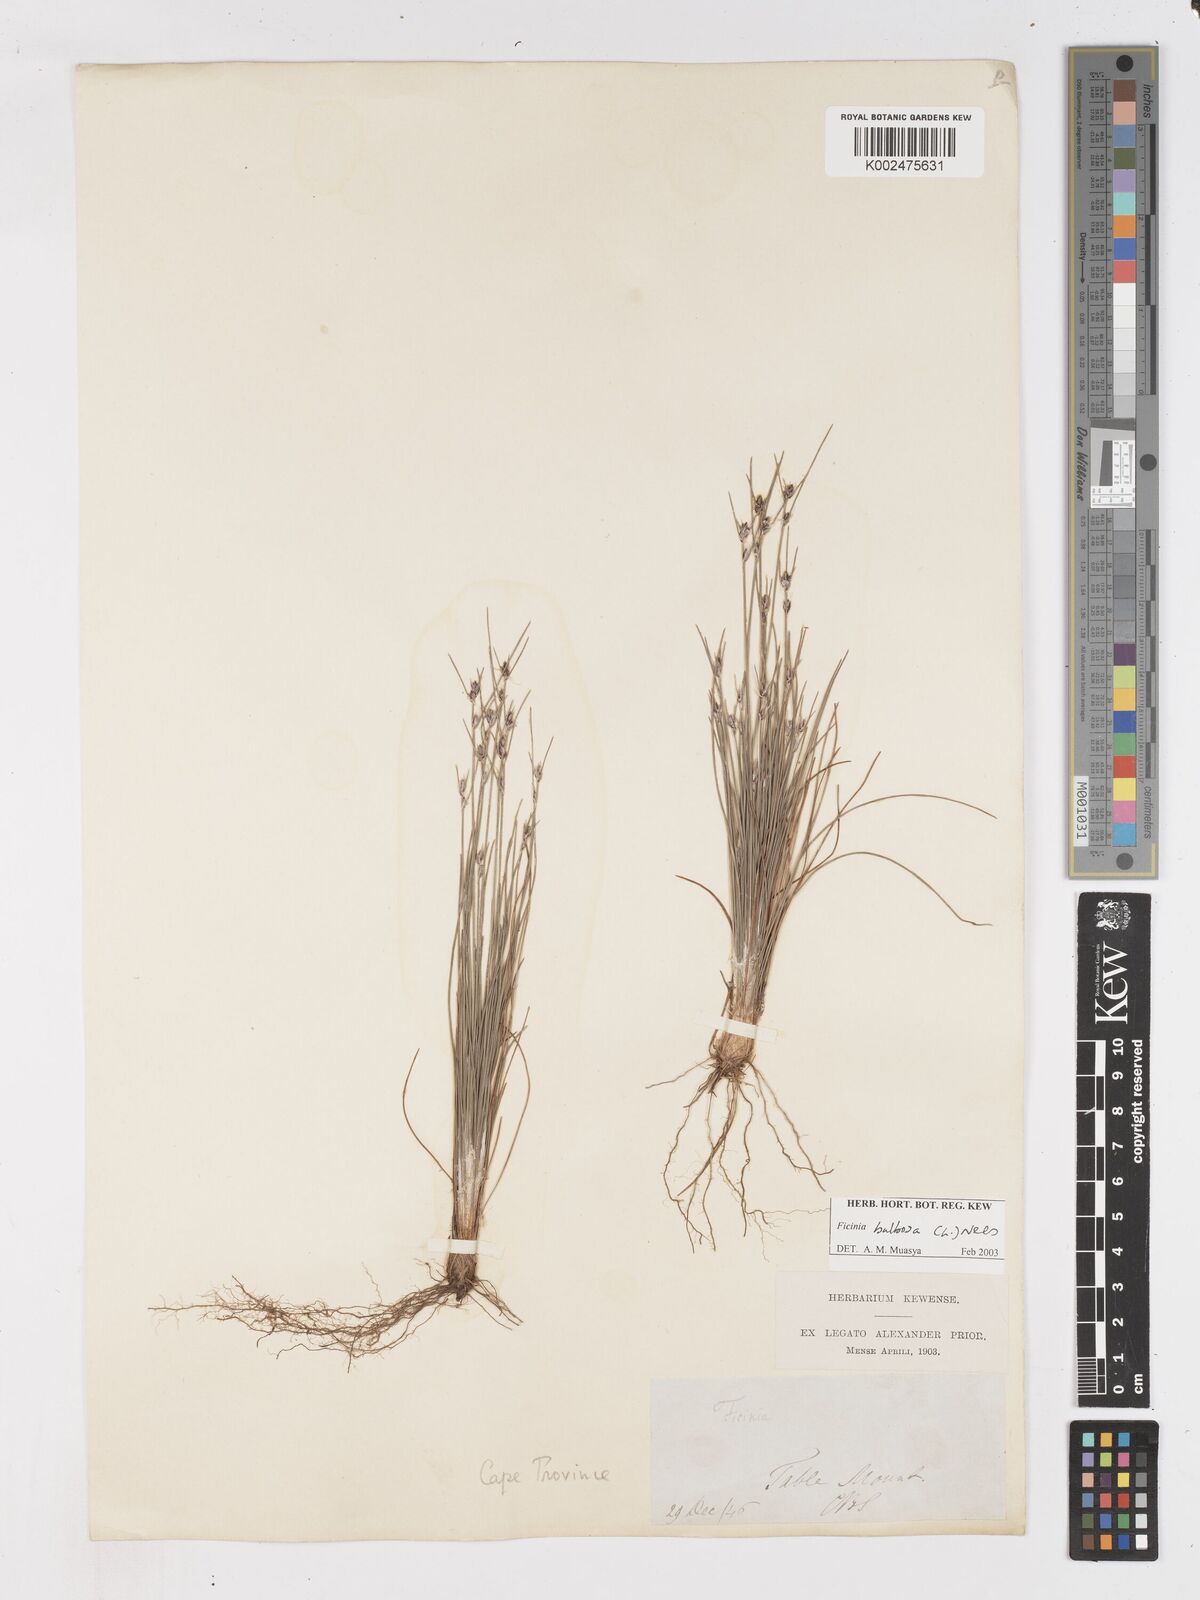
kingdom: Plantae
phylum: Tracheophyta
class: Liliopsida
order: Poales
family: Cyperaceae
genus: Ficinia
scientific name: Ficinia bulbosa
